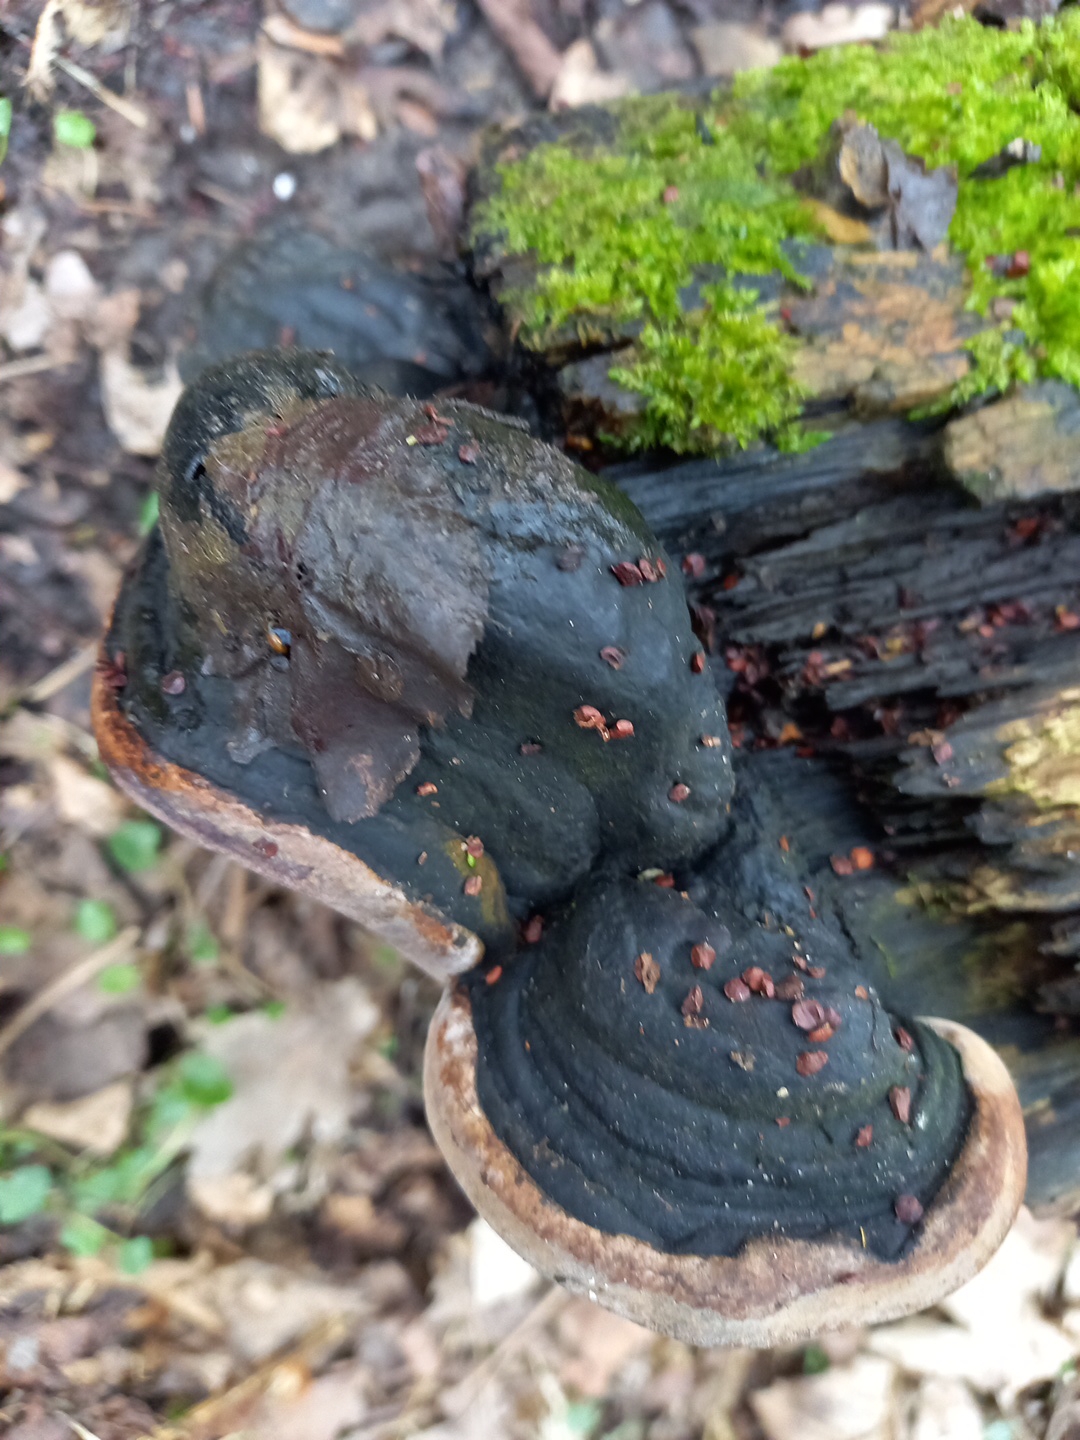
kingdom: Fungi
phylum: Basidiomycota
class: Agaricomycetes
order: Hymenochaetales
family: Hymenochaetaceae
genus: Phellinus
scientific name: Phellinus
